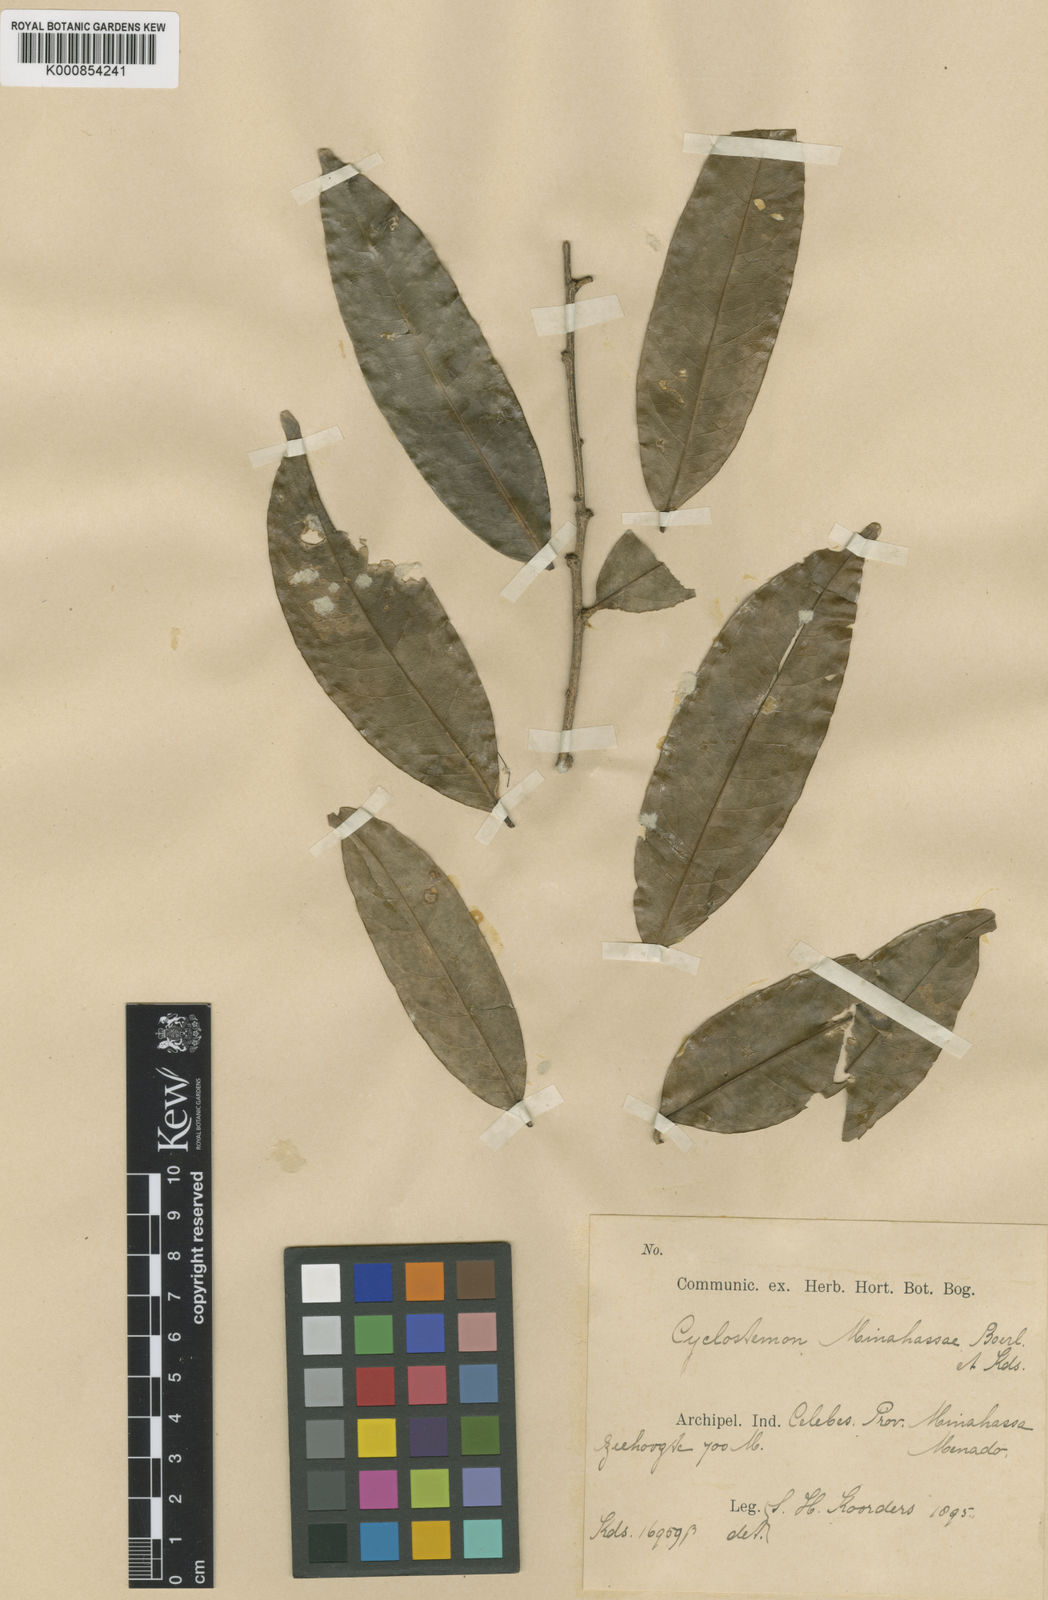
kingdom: Plantae
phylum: Tracheophyta
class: Magnoliopsida
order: Malpighiales
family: Putranjivaceae
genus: Drypetes
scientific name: Drypetes minahassae
